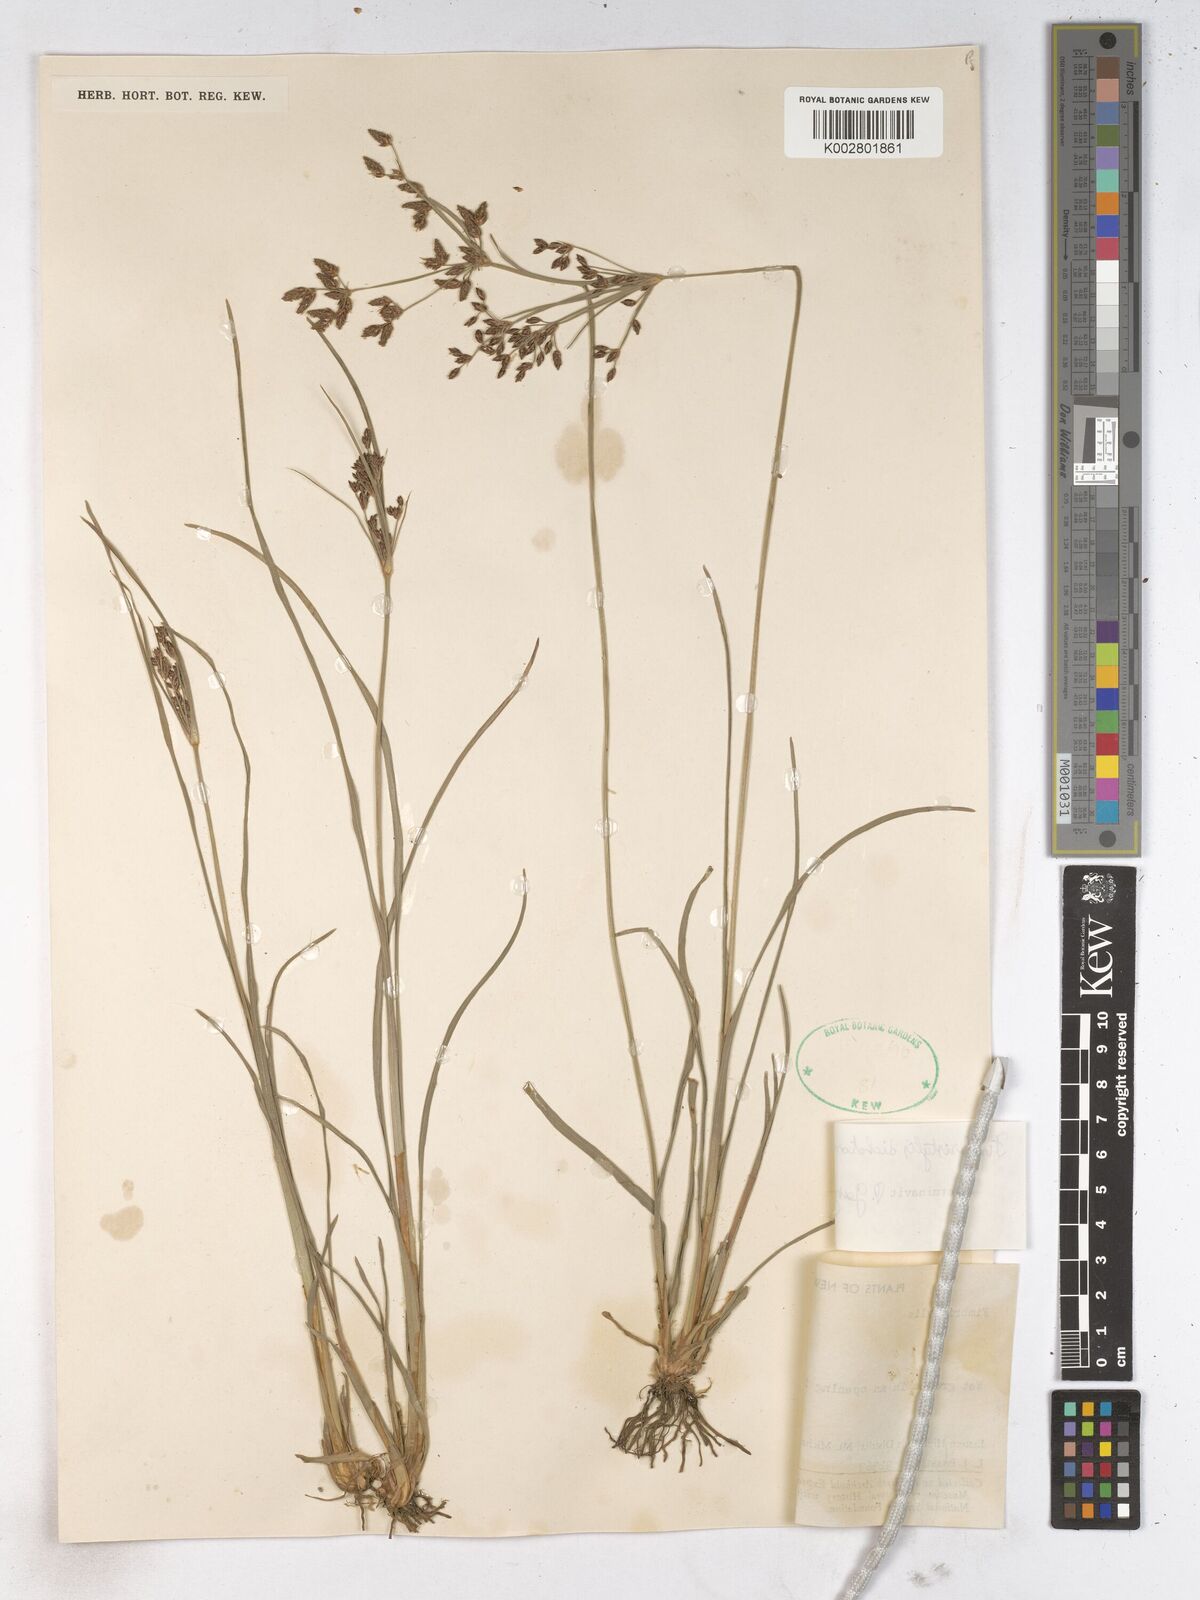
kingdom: Plantae
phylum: Tracheophyta
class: Liliopsida
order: Poales
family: Cyperaceae
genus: Fimbristylis
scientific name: Fimbristylis dichotoma
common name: Forked fimbry
